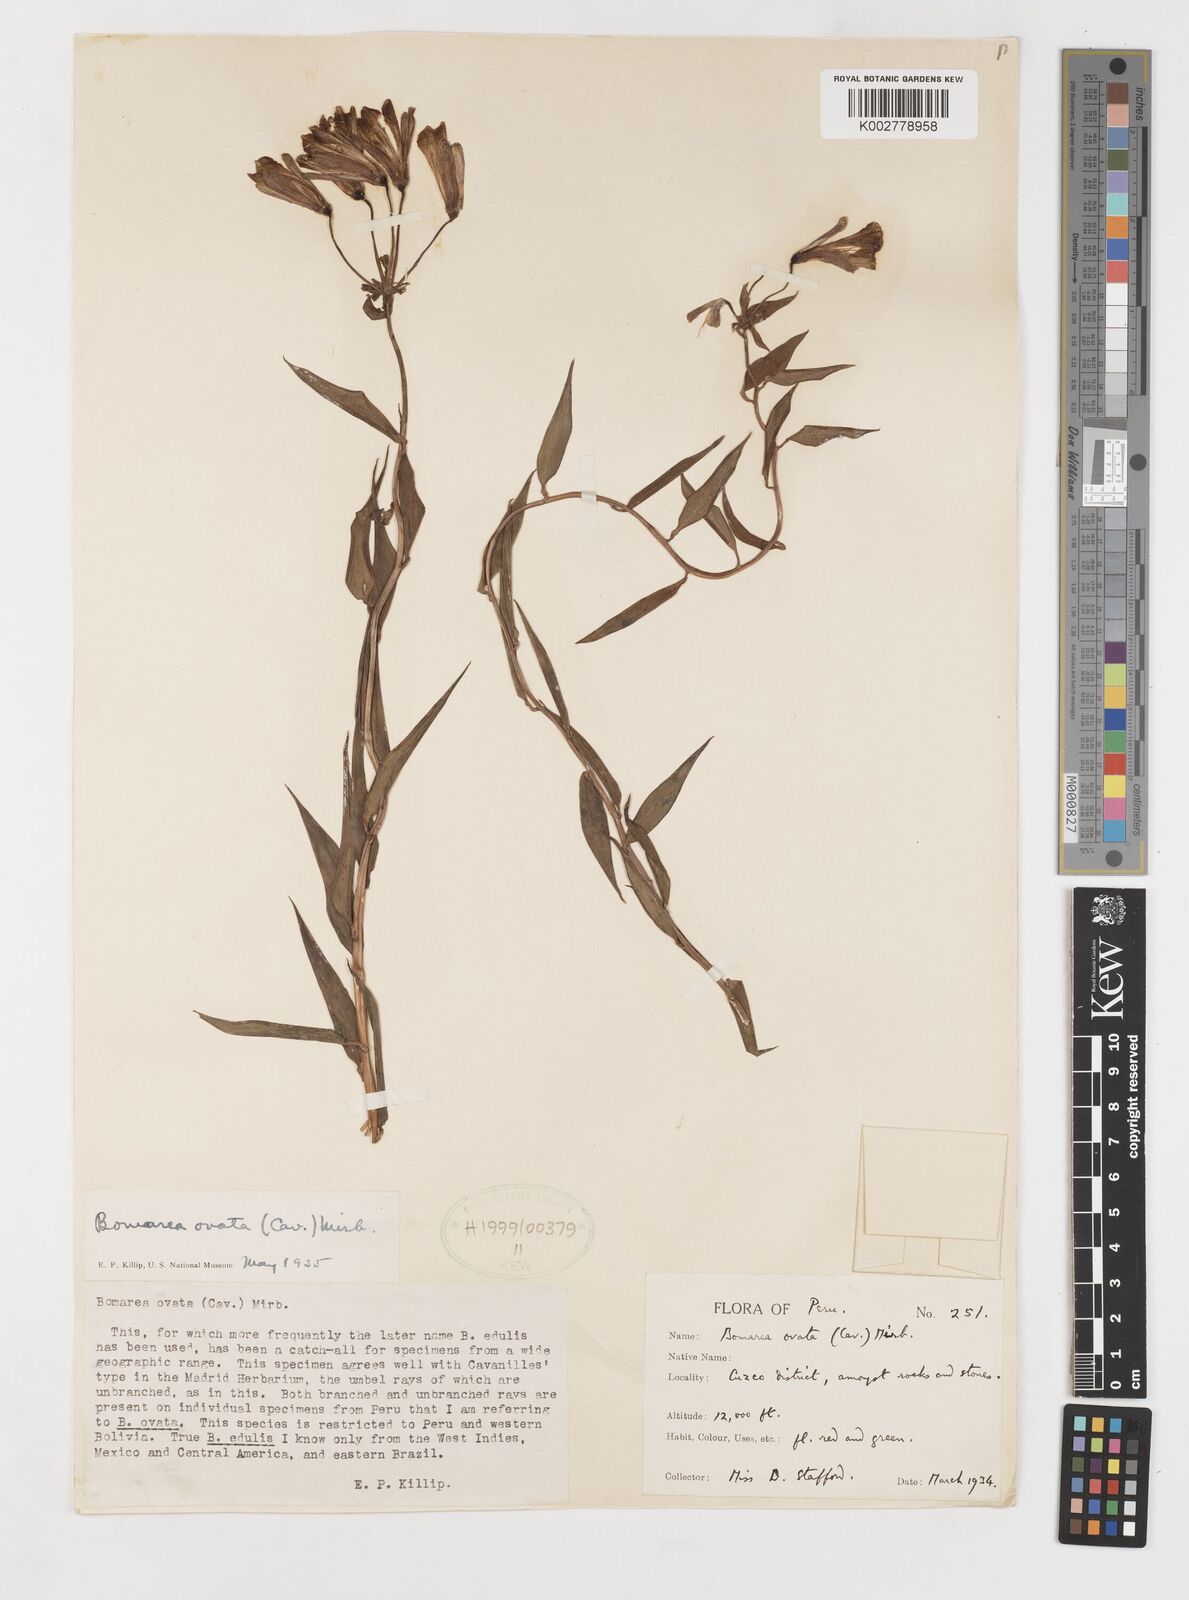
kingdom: Plantae
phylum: Tracheophyta
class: Liliopsida
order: Liliales
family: Alstroemeriaceae
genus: Bomarea
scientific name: Bomarea ovata
